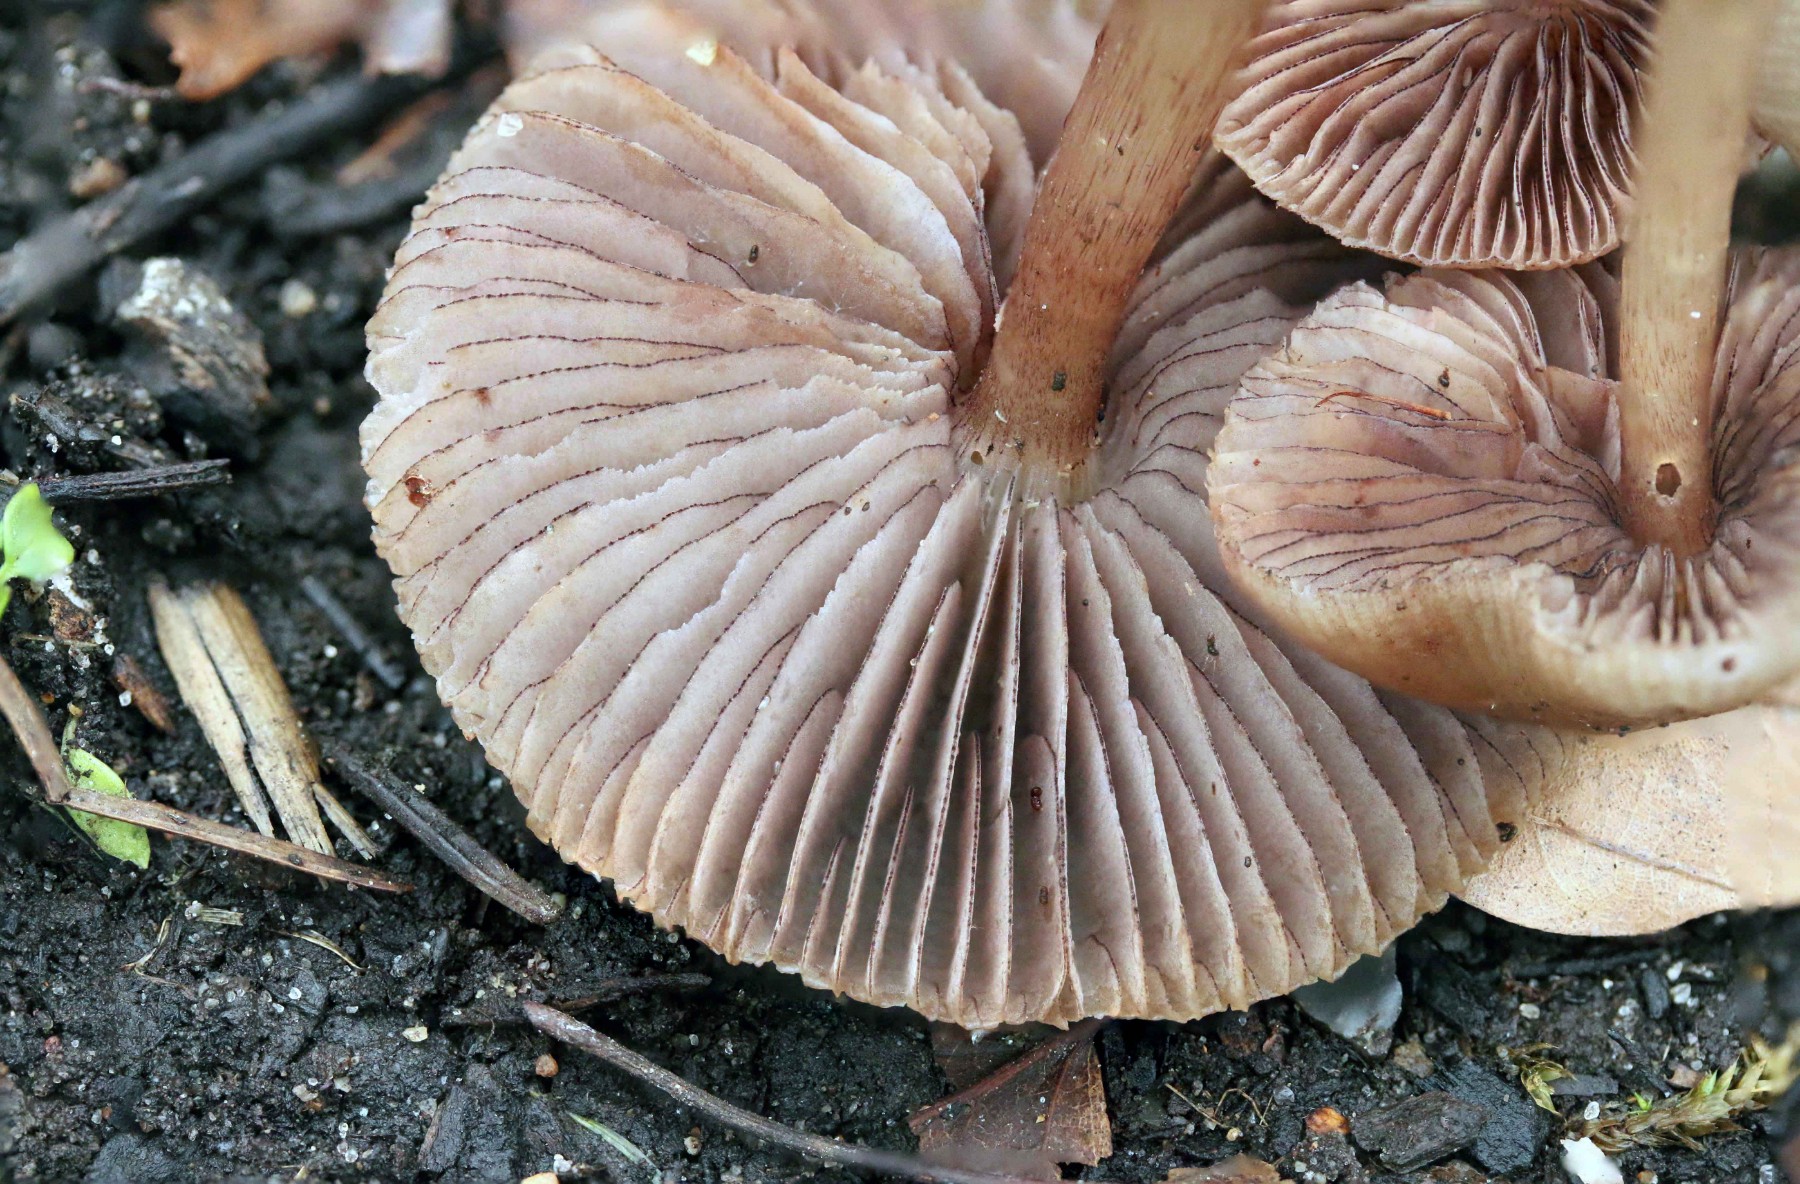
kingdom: Fungi
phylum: Basidiomycota
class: Agaricomycetes
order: Agaricales
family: Mycenaceae
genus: Mycena
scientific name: Mycena pelianthina
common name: mørkbladet huesvamp
